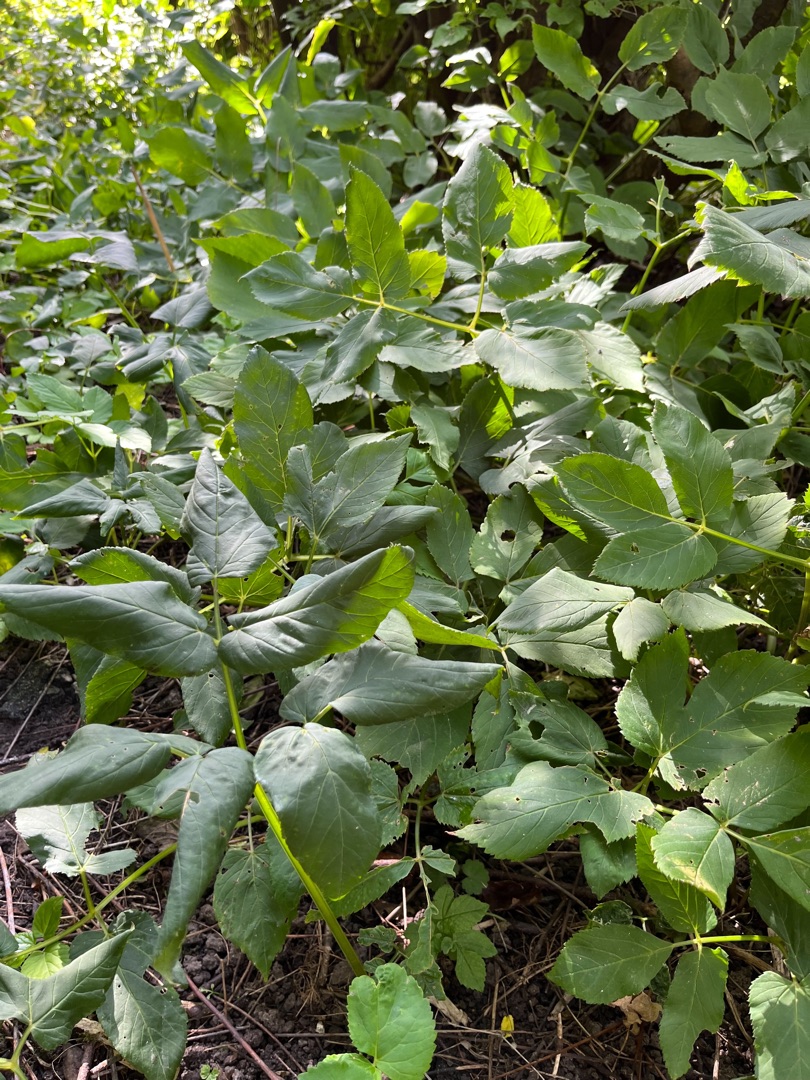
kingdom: Plantae
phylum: Tracheophyta
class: Magnoliopsida
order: Apiales
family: Apiaceae
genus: Aegopodium
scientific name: Aegopodium podagraria
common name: Skvalderkål
